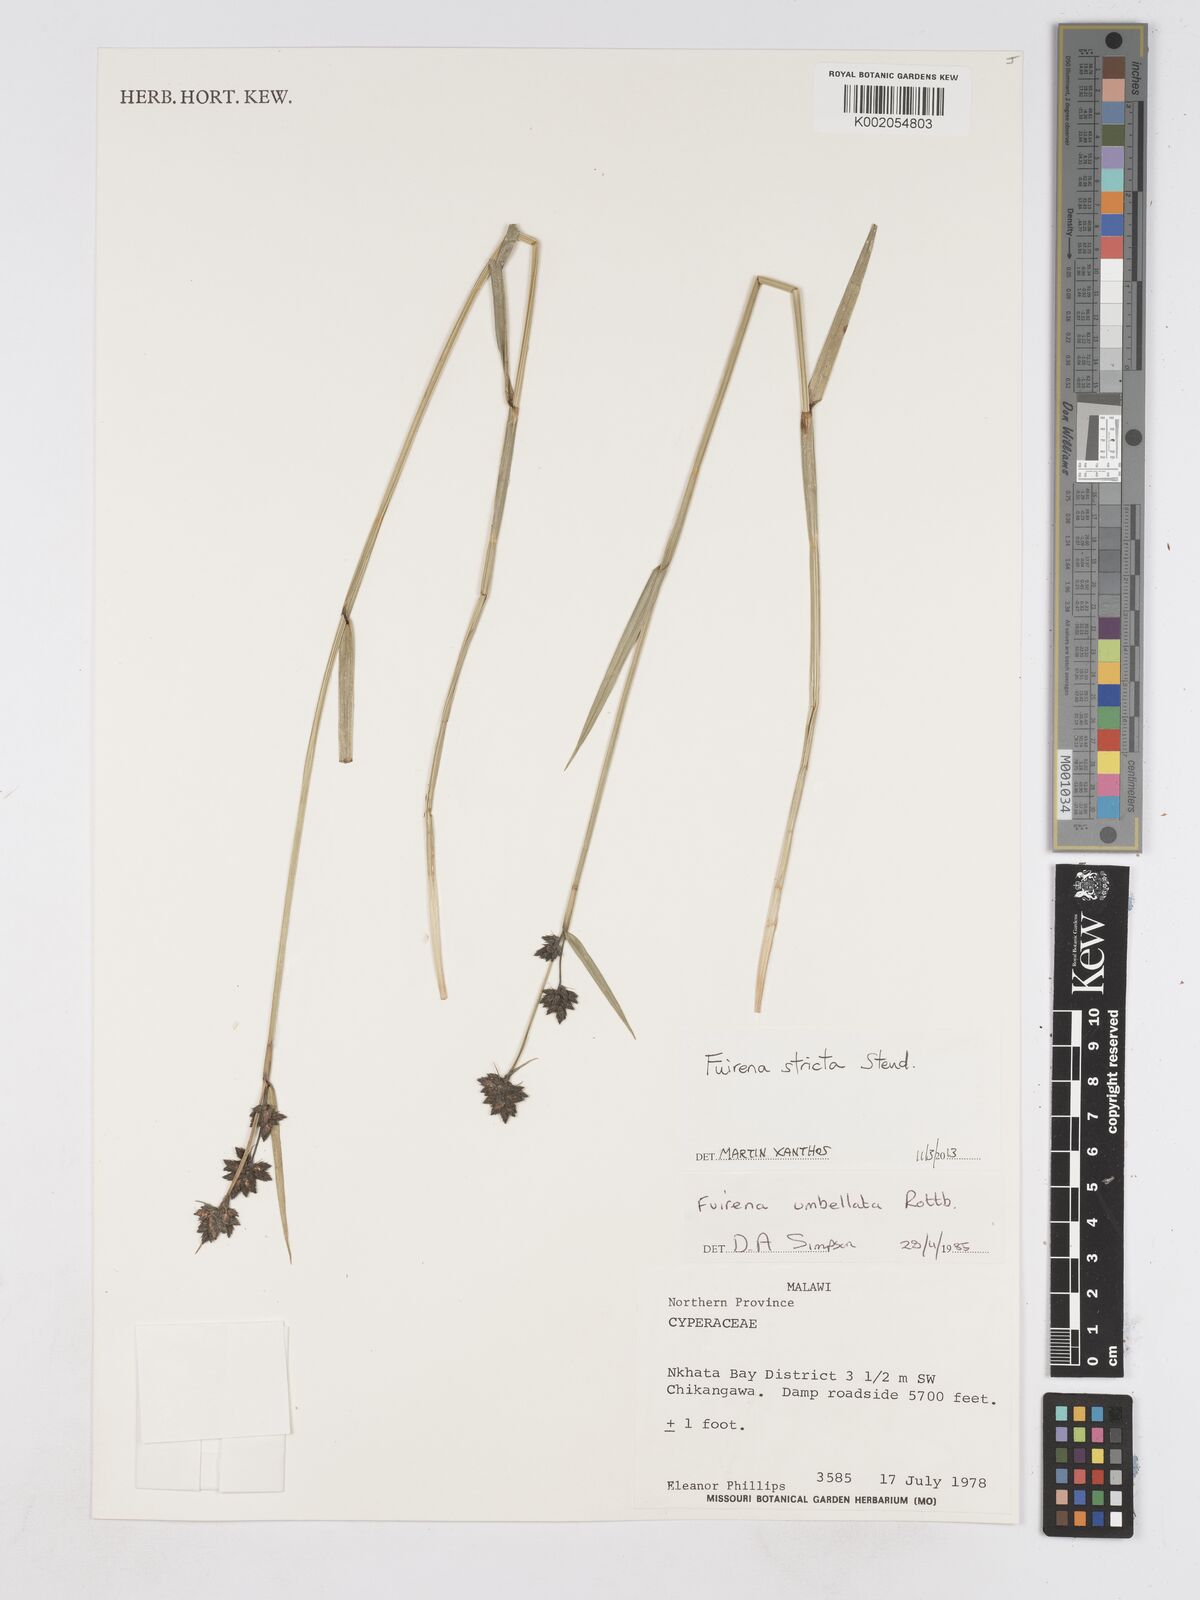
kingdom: Plantae
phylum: Tracheophyta
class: Liliopsida
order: Poales
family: Cyperaceae
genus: Fuirena
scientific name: Fuirena stricta
